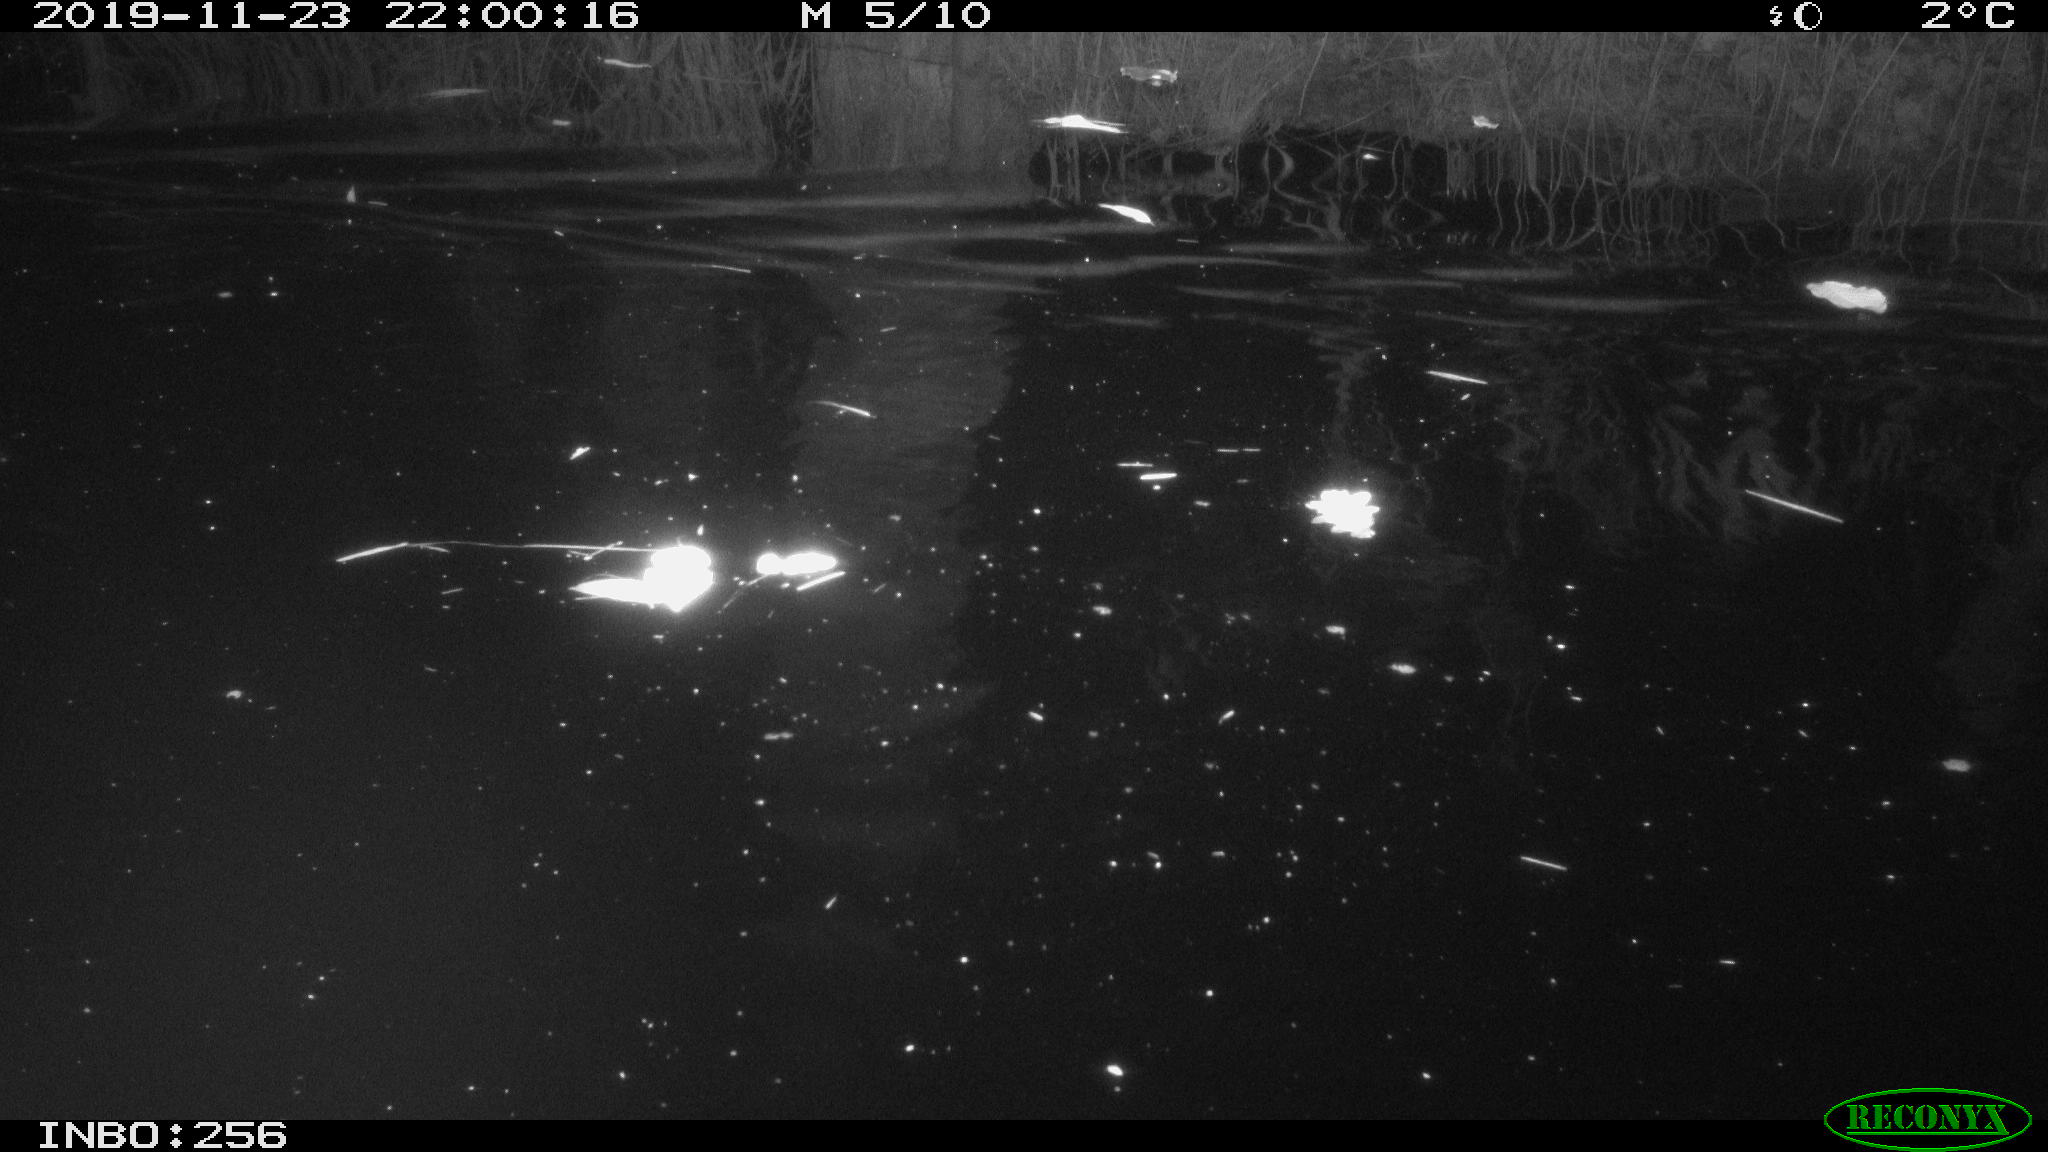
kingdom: Animalia
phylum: Chordata
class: Mammalia
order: Rodentia
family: Cricetidae
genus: Ondatra
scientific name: Ondatra zibethicus
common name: Muskrat
